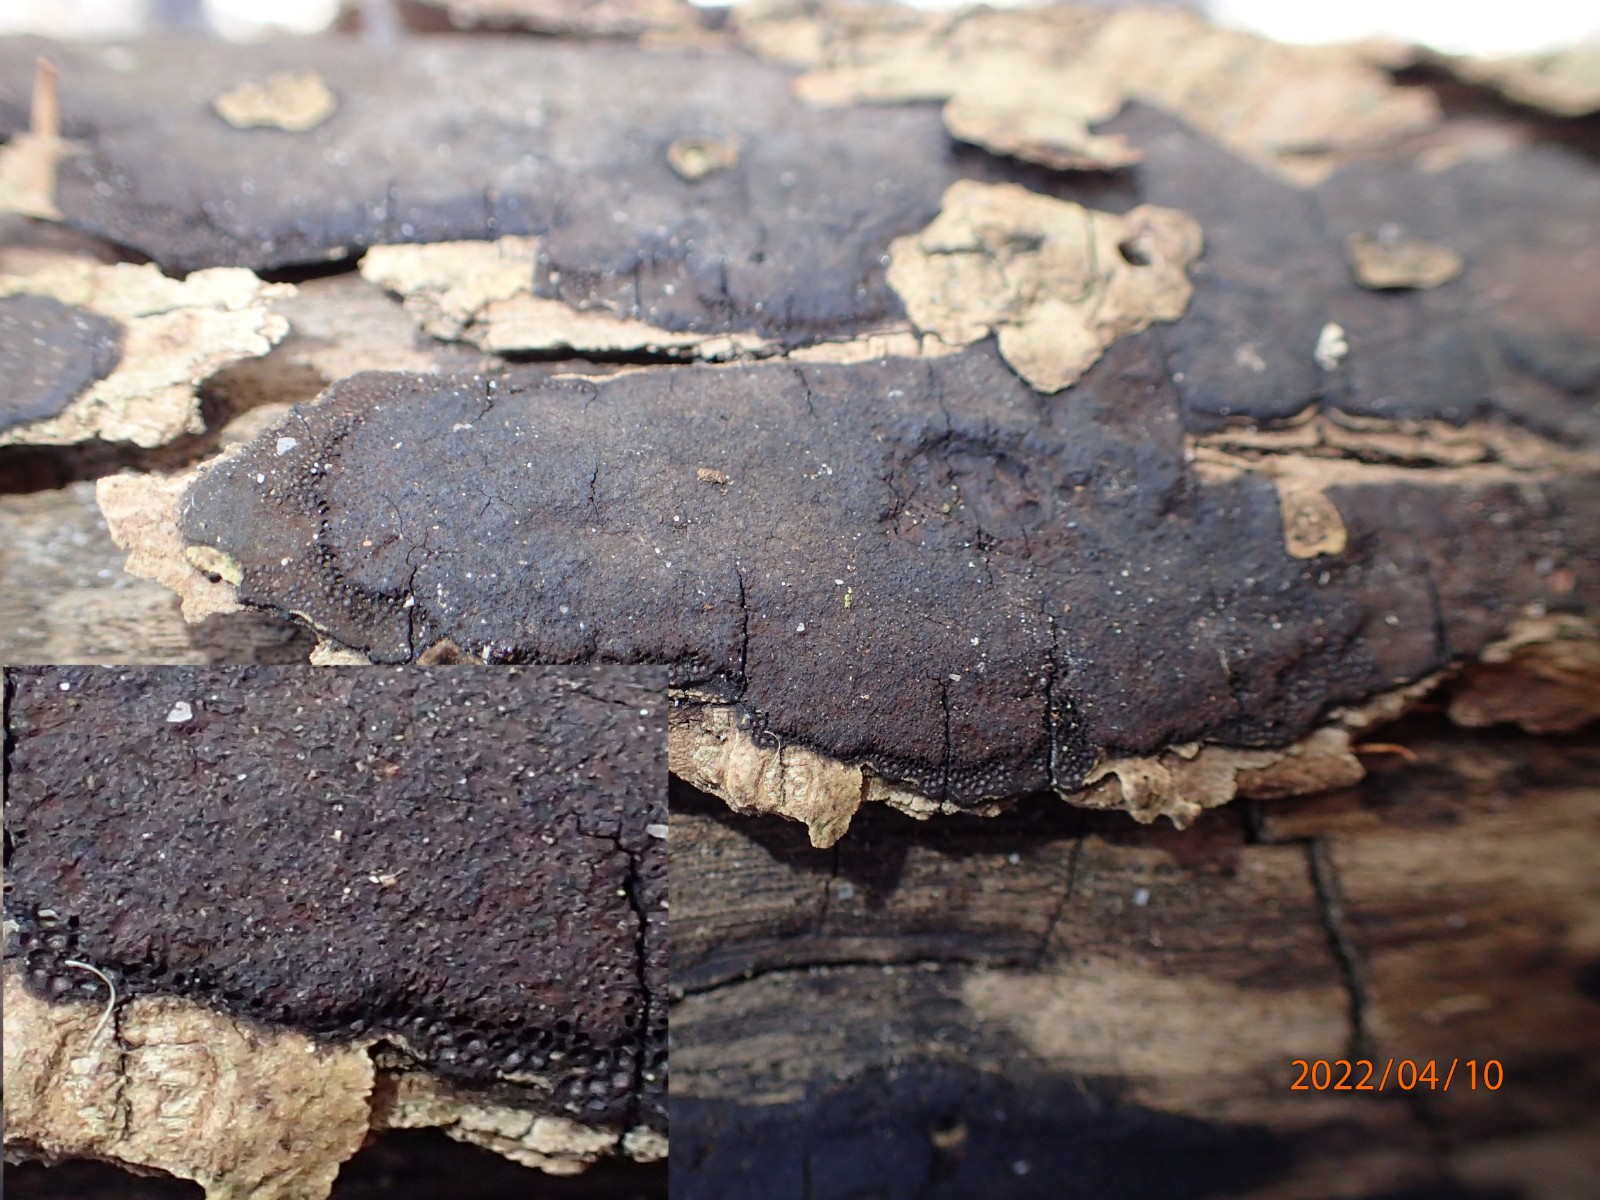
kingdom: Fungi
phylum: Ascomycota
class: Sordariomycetes
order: Xylariales
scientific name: Xylariales
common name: stødsvampordenen
